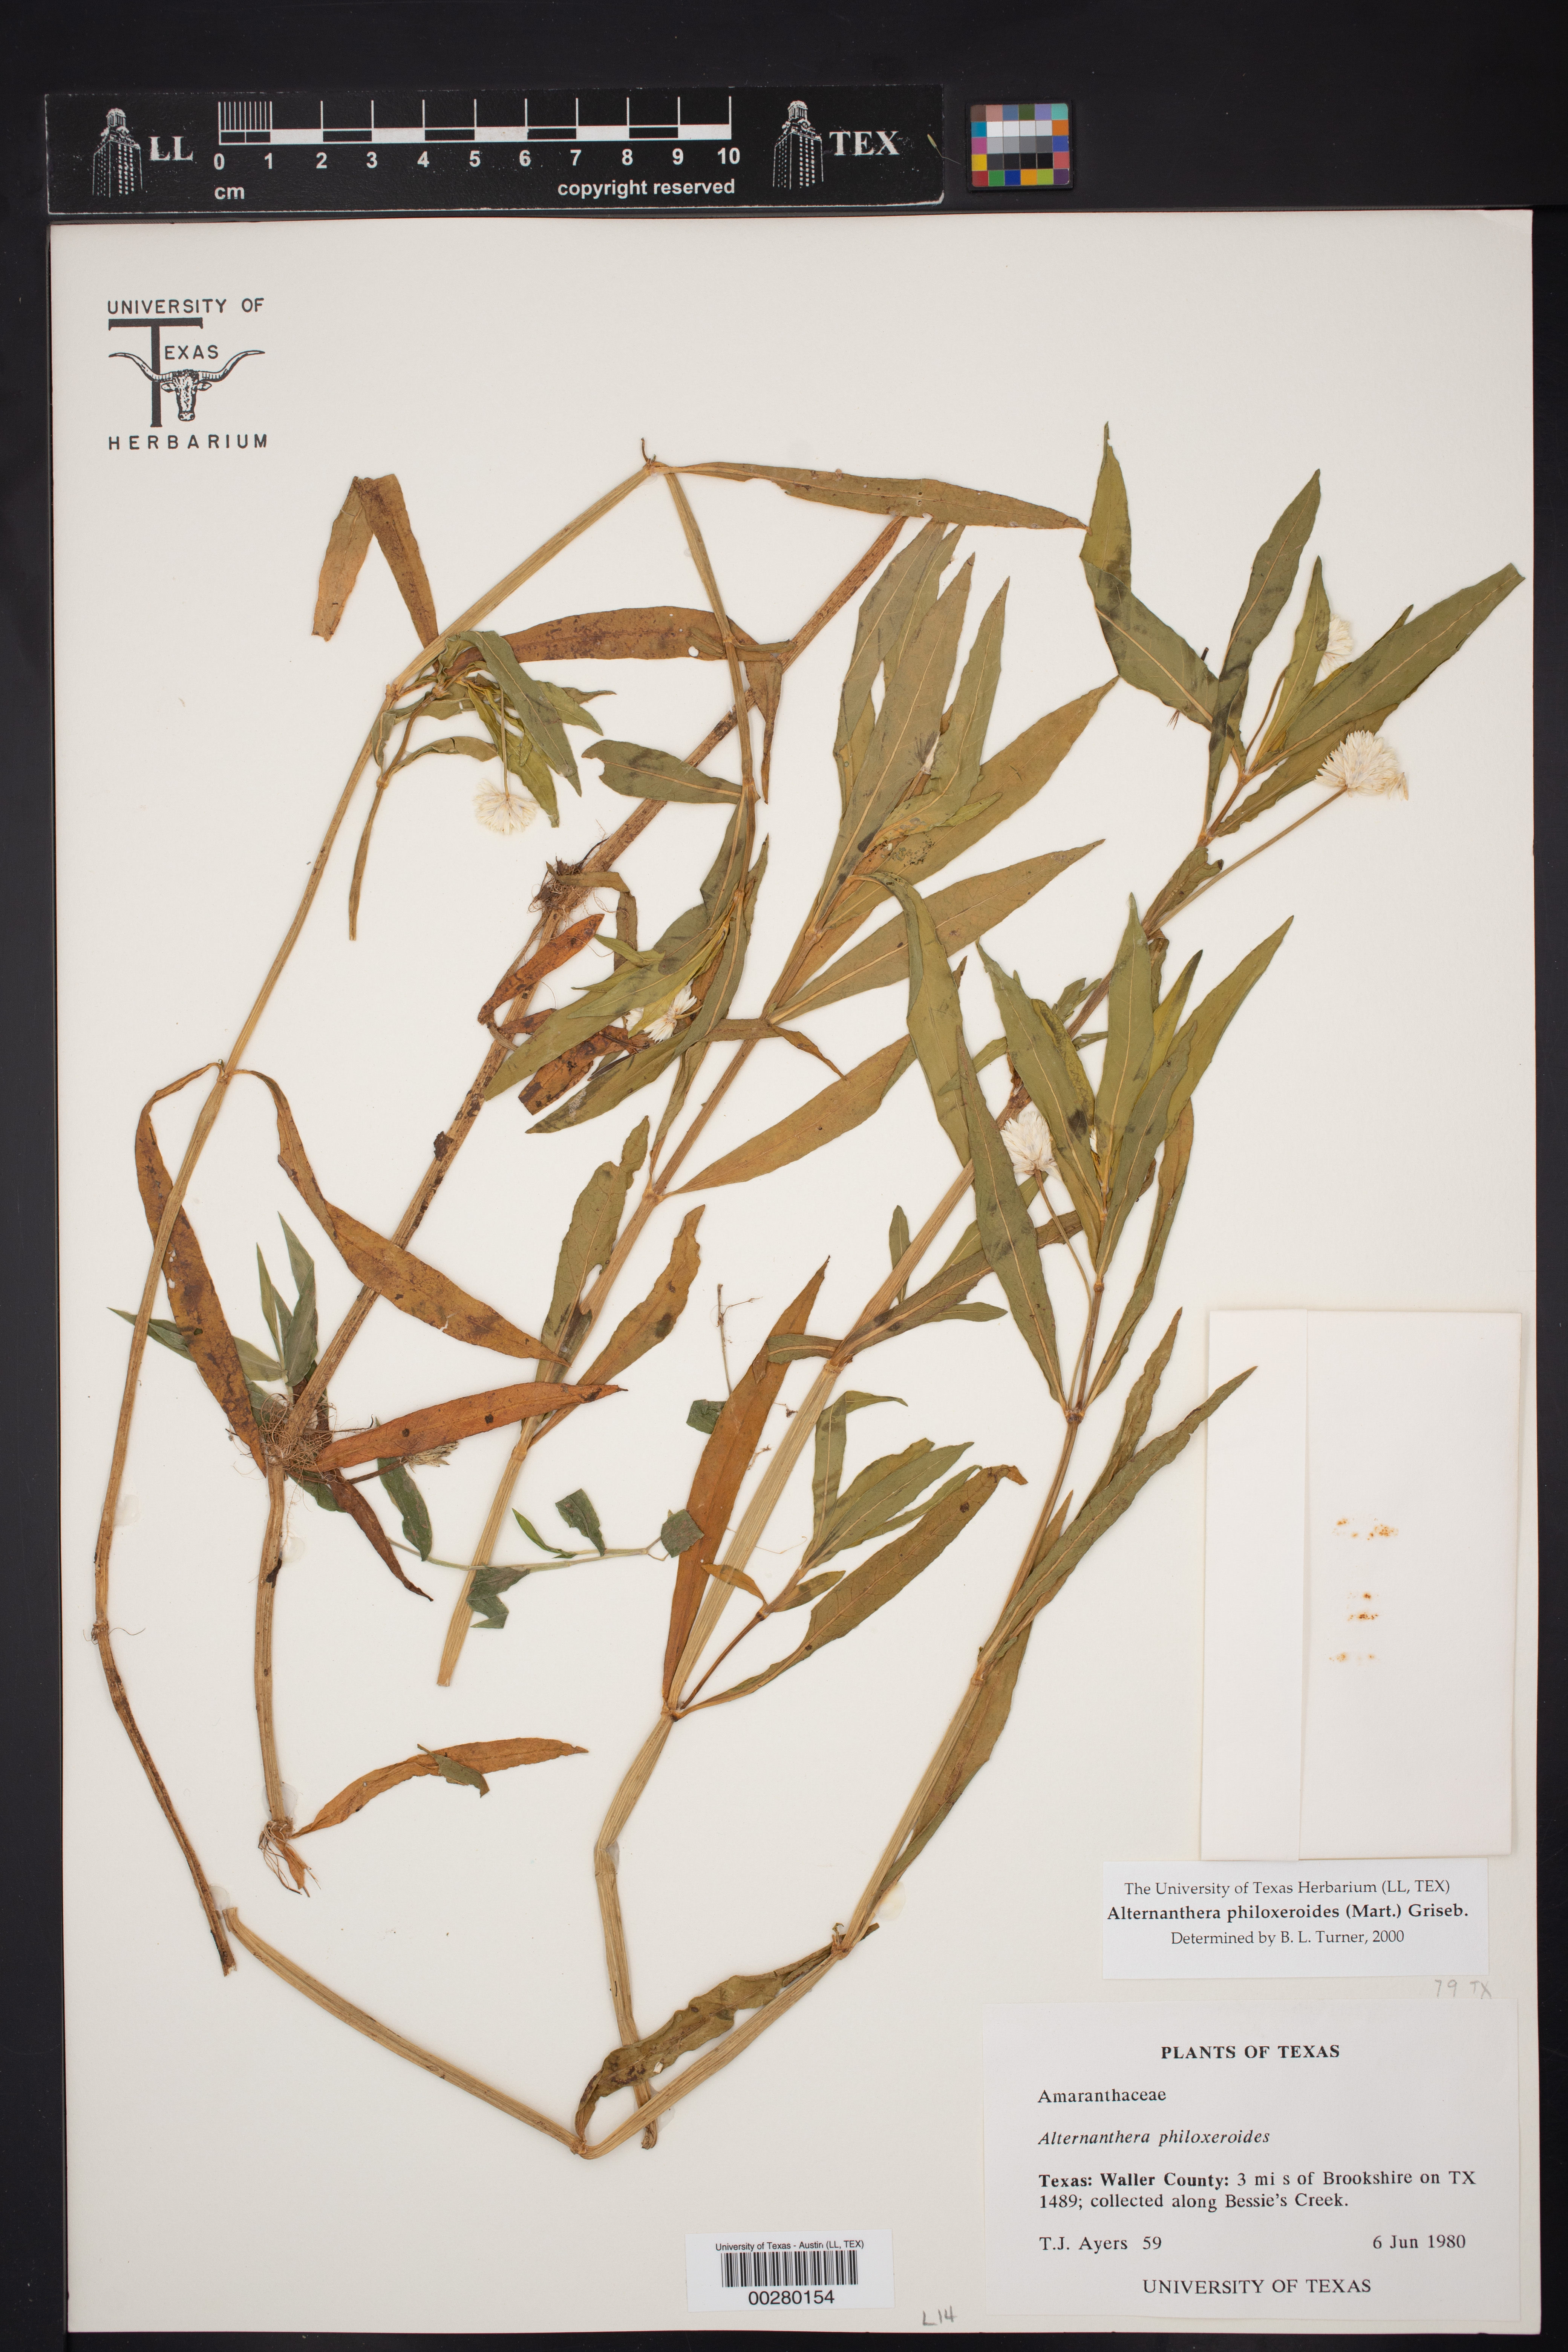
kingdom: Plantae
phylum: Tracheophyta
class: Magnoliopsida
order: Caryophyllales
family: Amaranthaceae
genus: Alternanthera
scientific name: Alternanthera philoxeroides
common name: Alligatorweed
